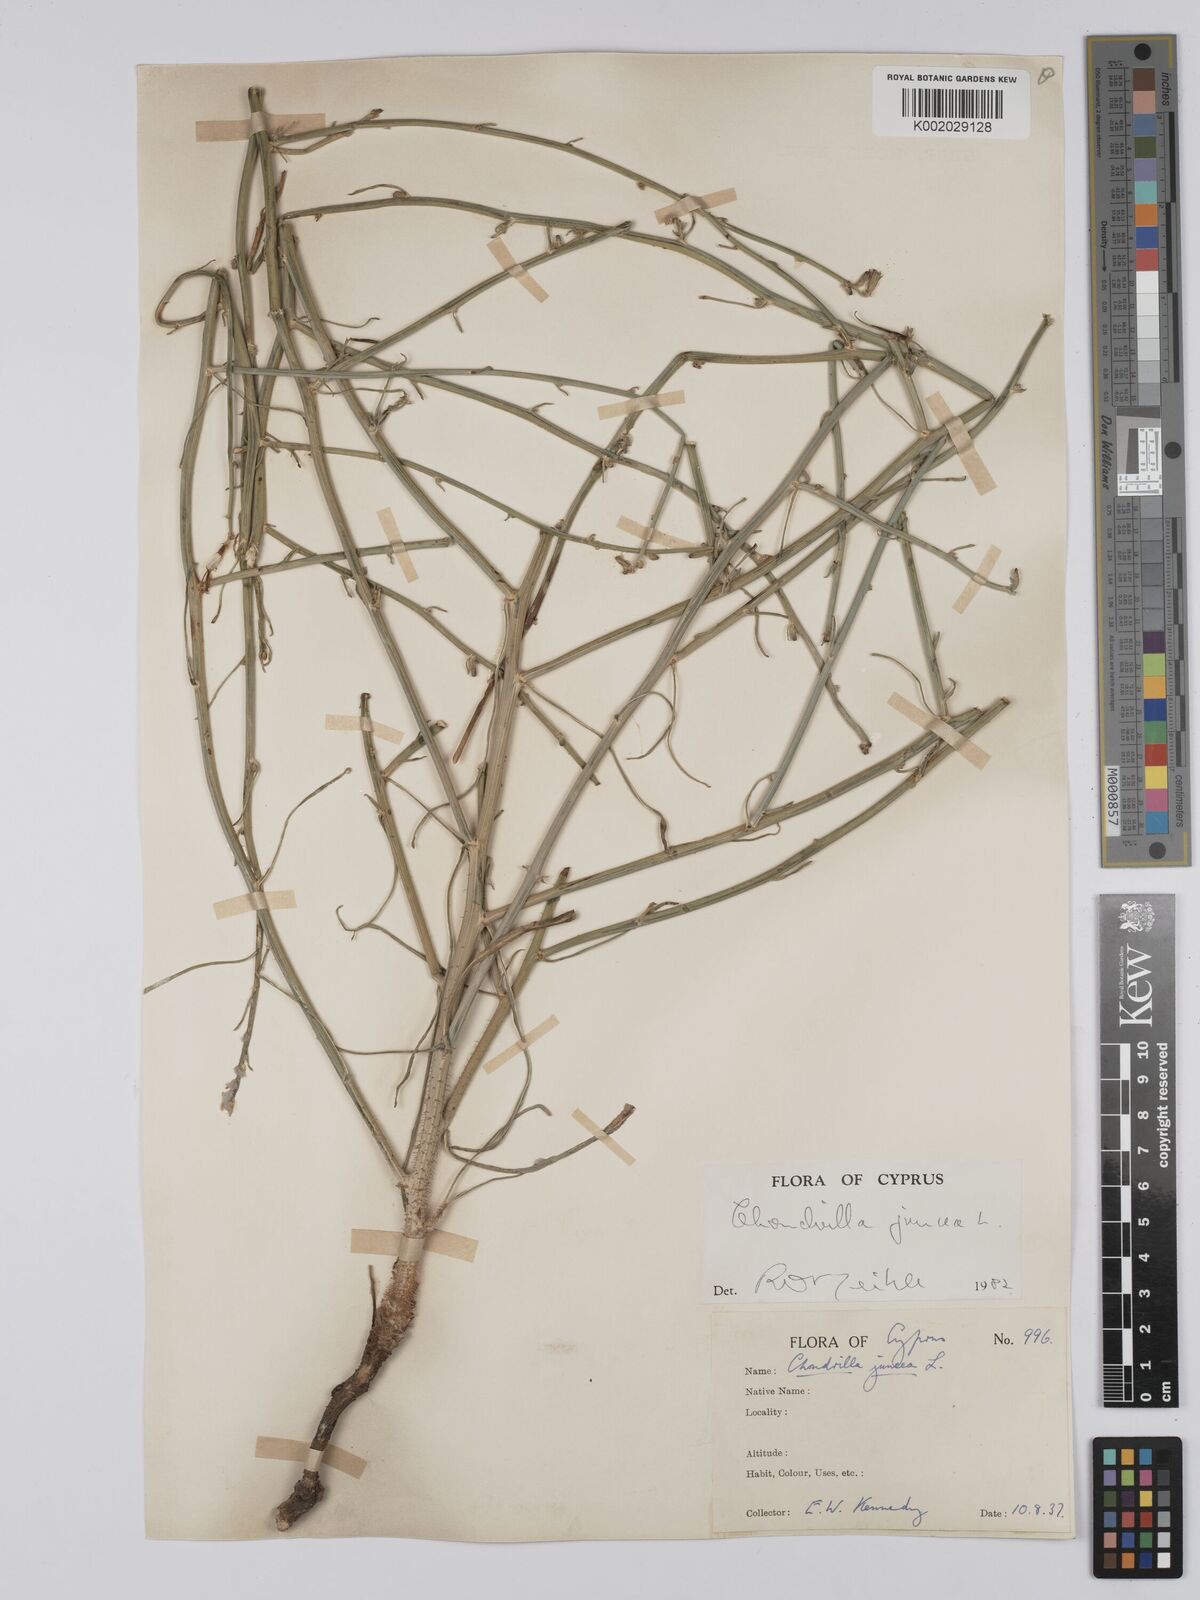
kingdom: Plantae
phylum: Tracheophyta
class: Magnoliopsida
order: Asterales
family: Asteraceae
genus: Chondrilla
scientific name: Chondrilla juncea
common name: Skeleton weed
